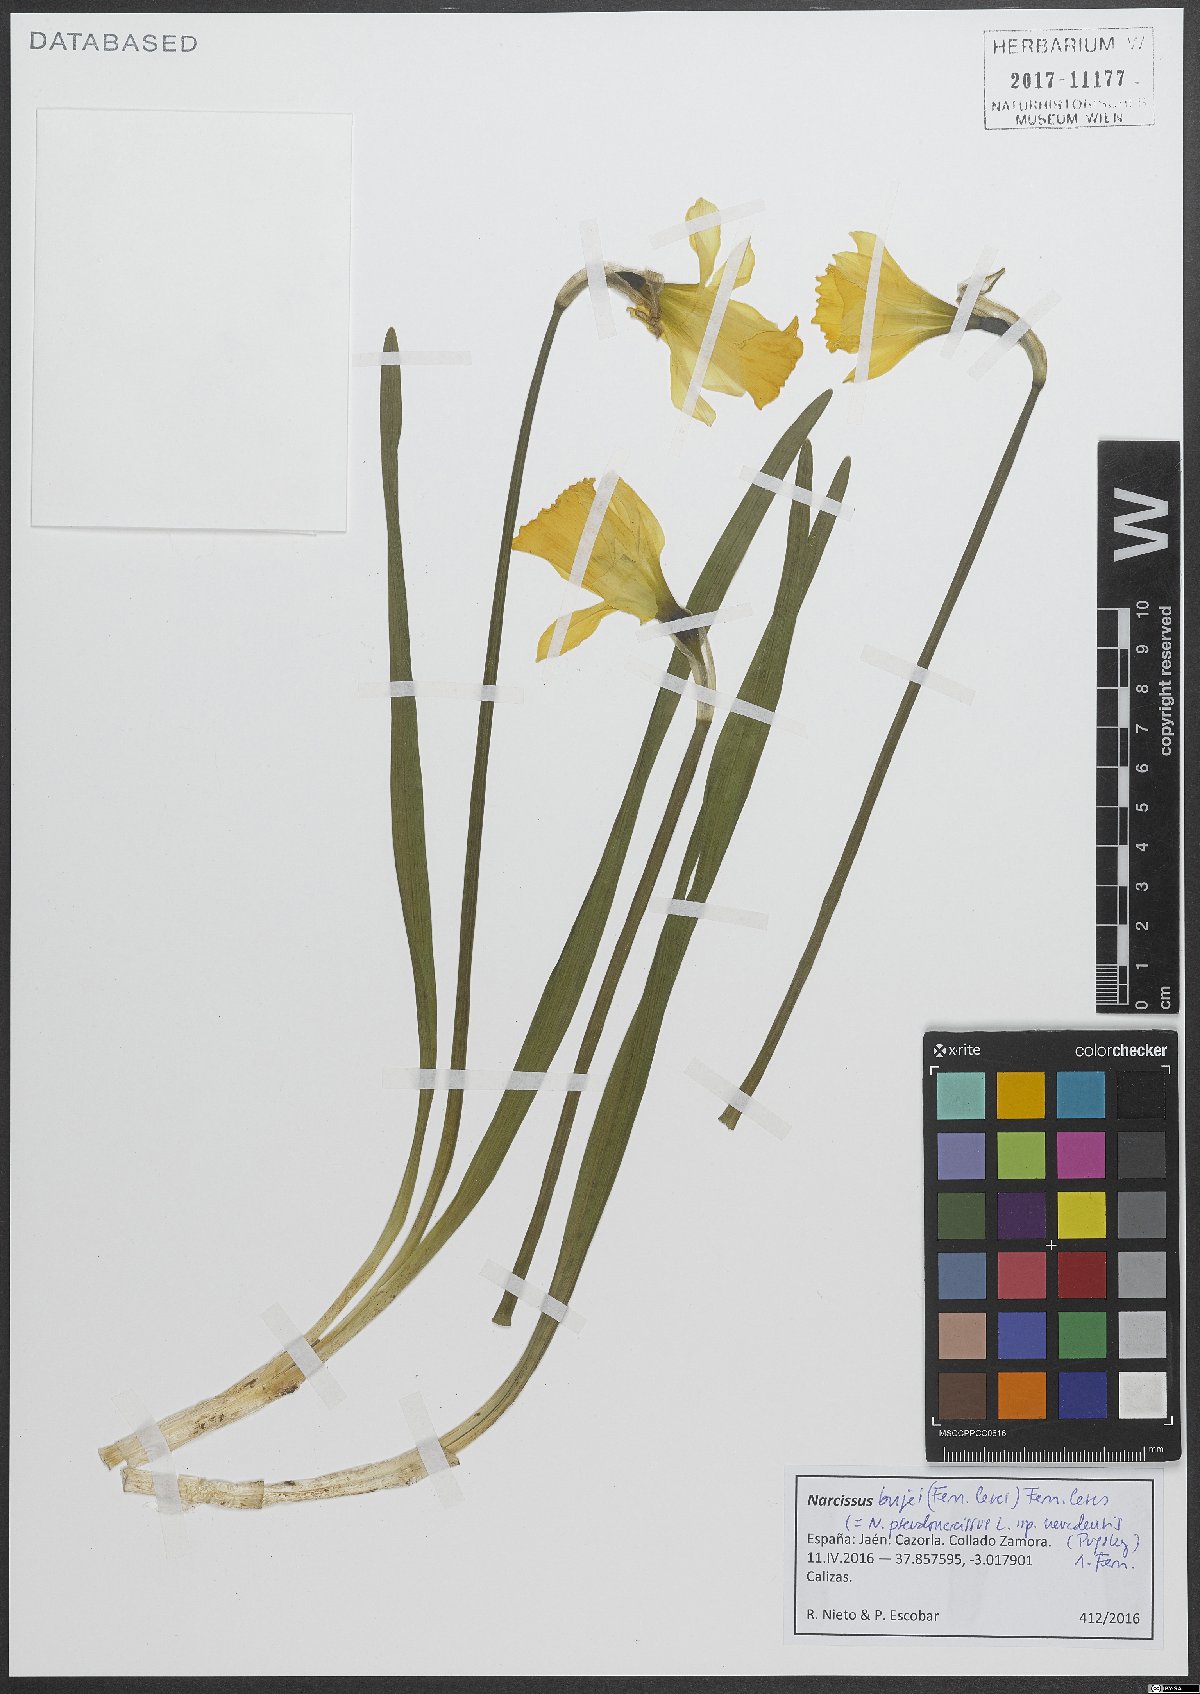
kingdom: Plantae
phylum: Tracheophyta
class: Liliopsida
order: Asparagales
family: Amaryllidaceae
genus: Narcissus
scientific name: Narcissus bujei
